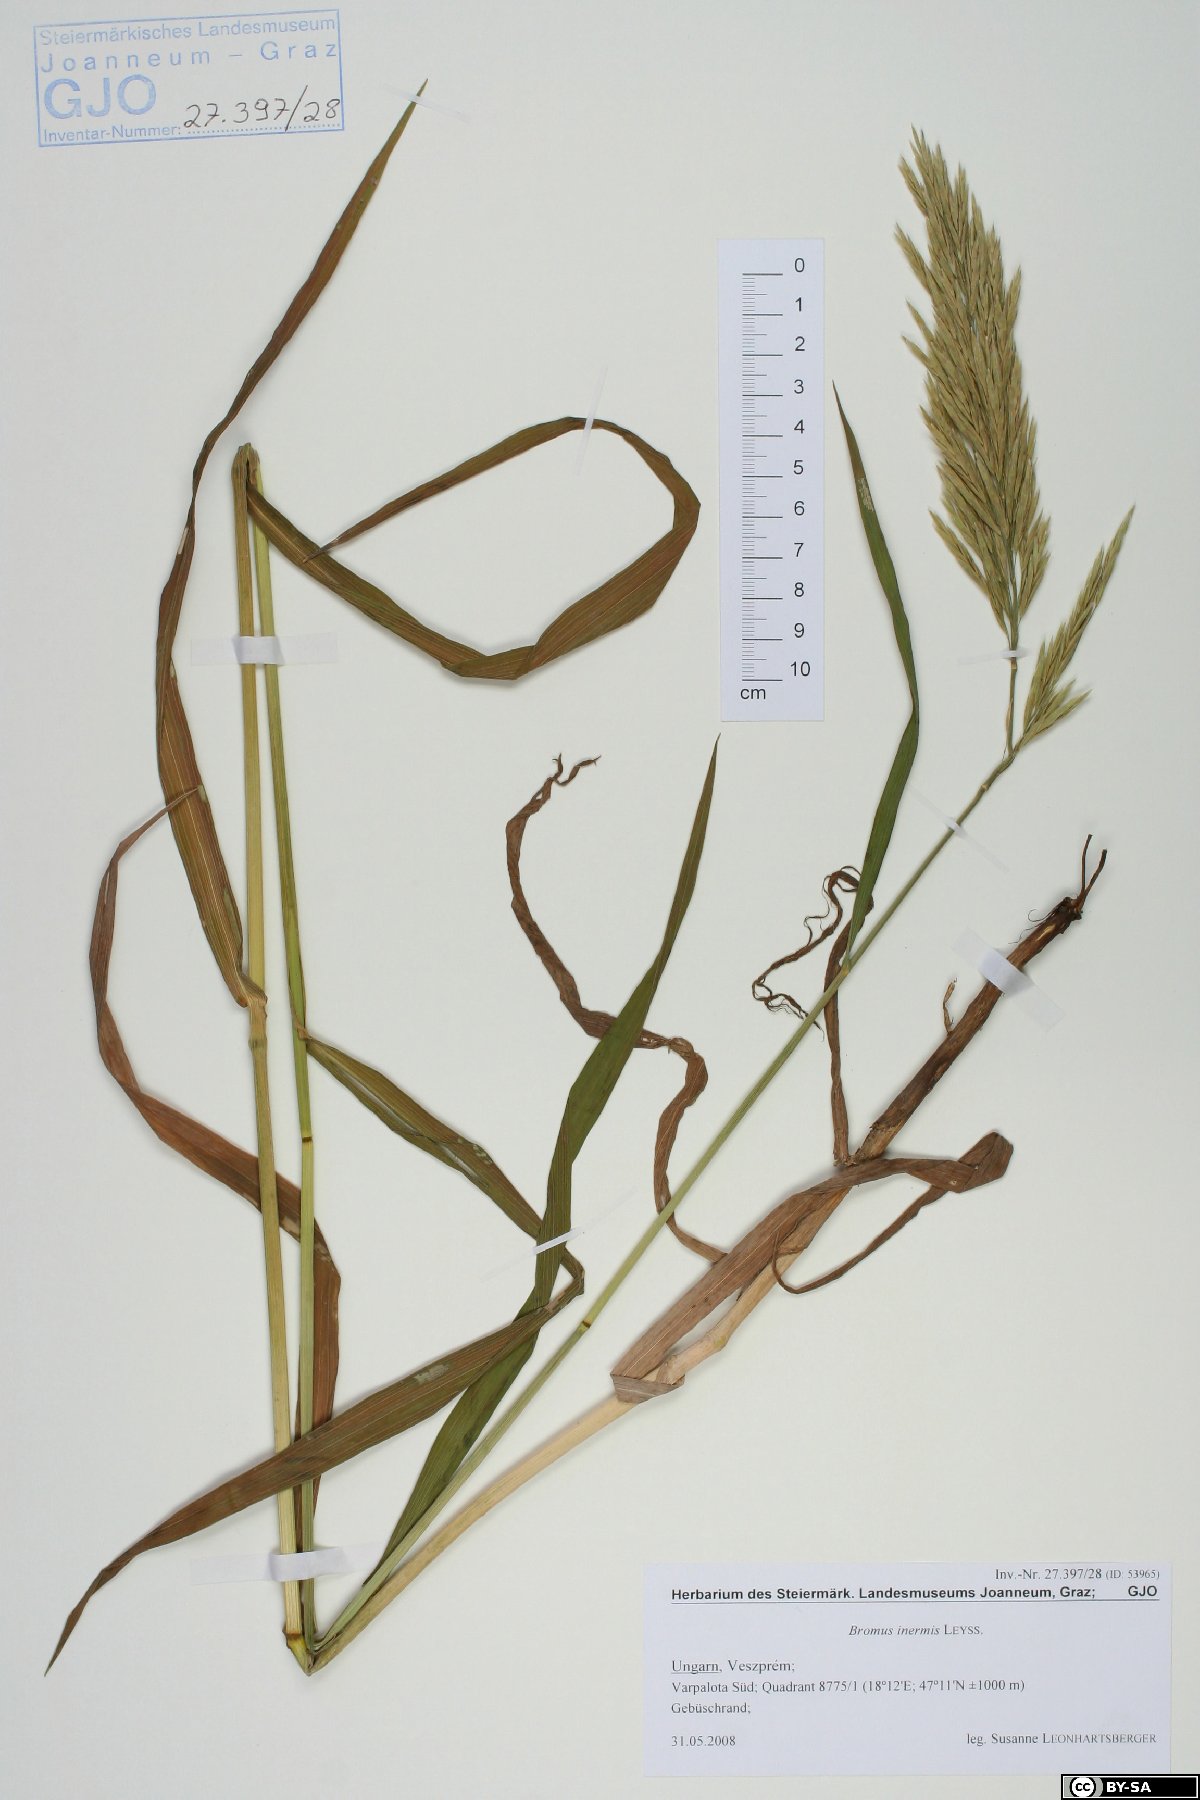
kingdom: Plantae
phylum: Tracheophyta
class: Liliopsida
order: Poales
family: Poaceae
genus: Bromus
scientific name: Bromus inermis
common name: Smooth brome
